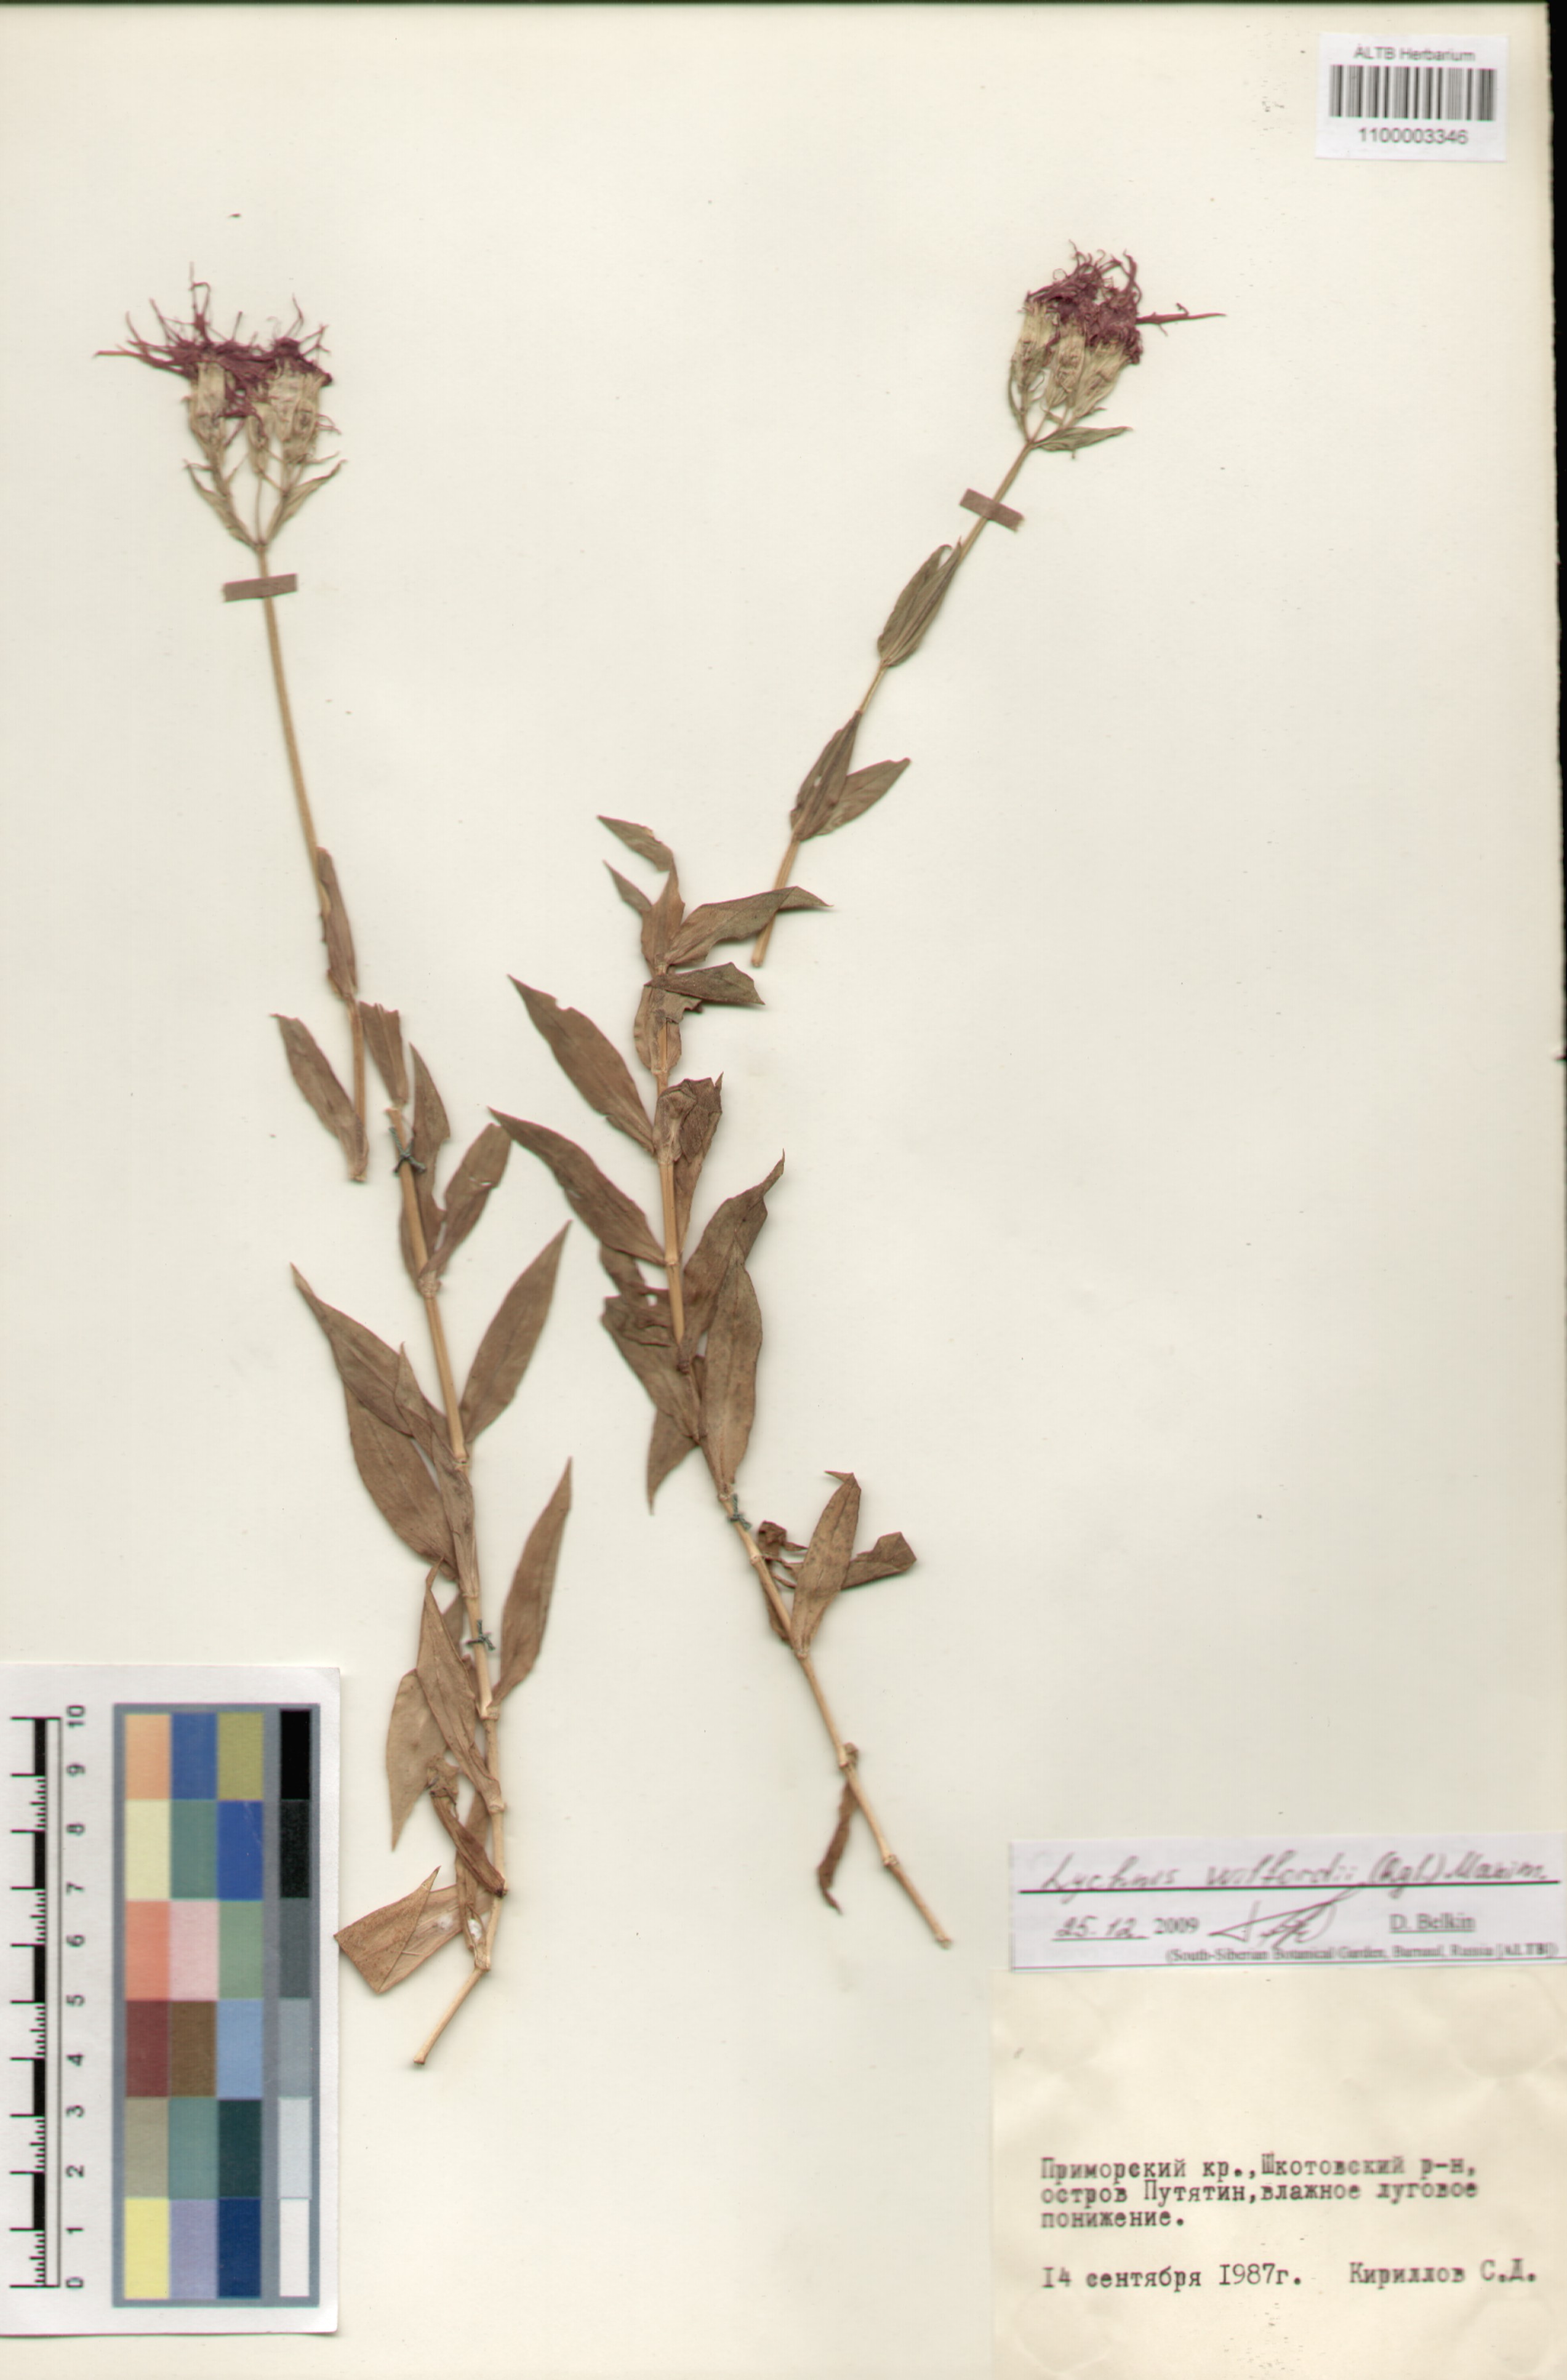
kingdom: Plantae
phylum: Tracheophyta
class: Magnoliopsida
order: Caryophyllales
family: Caryophyllaceae
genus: Silene
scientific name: Silene wilfordii
